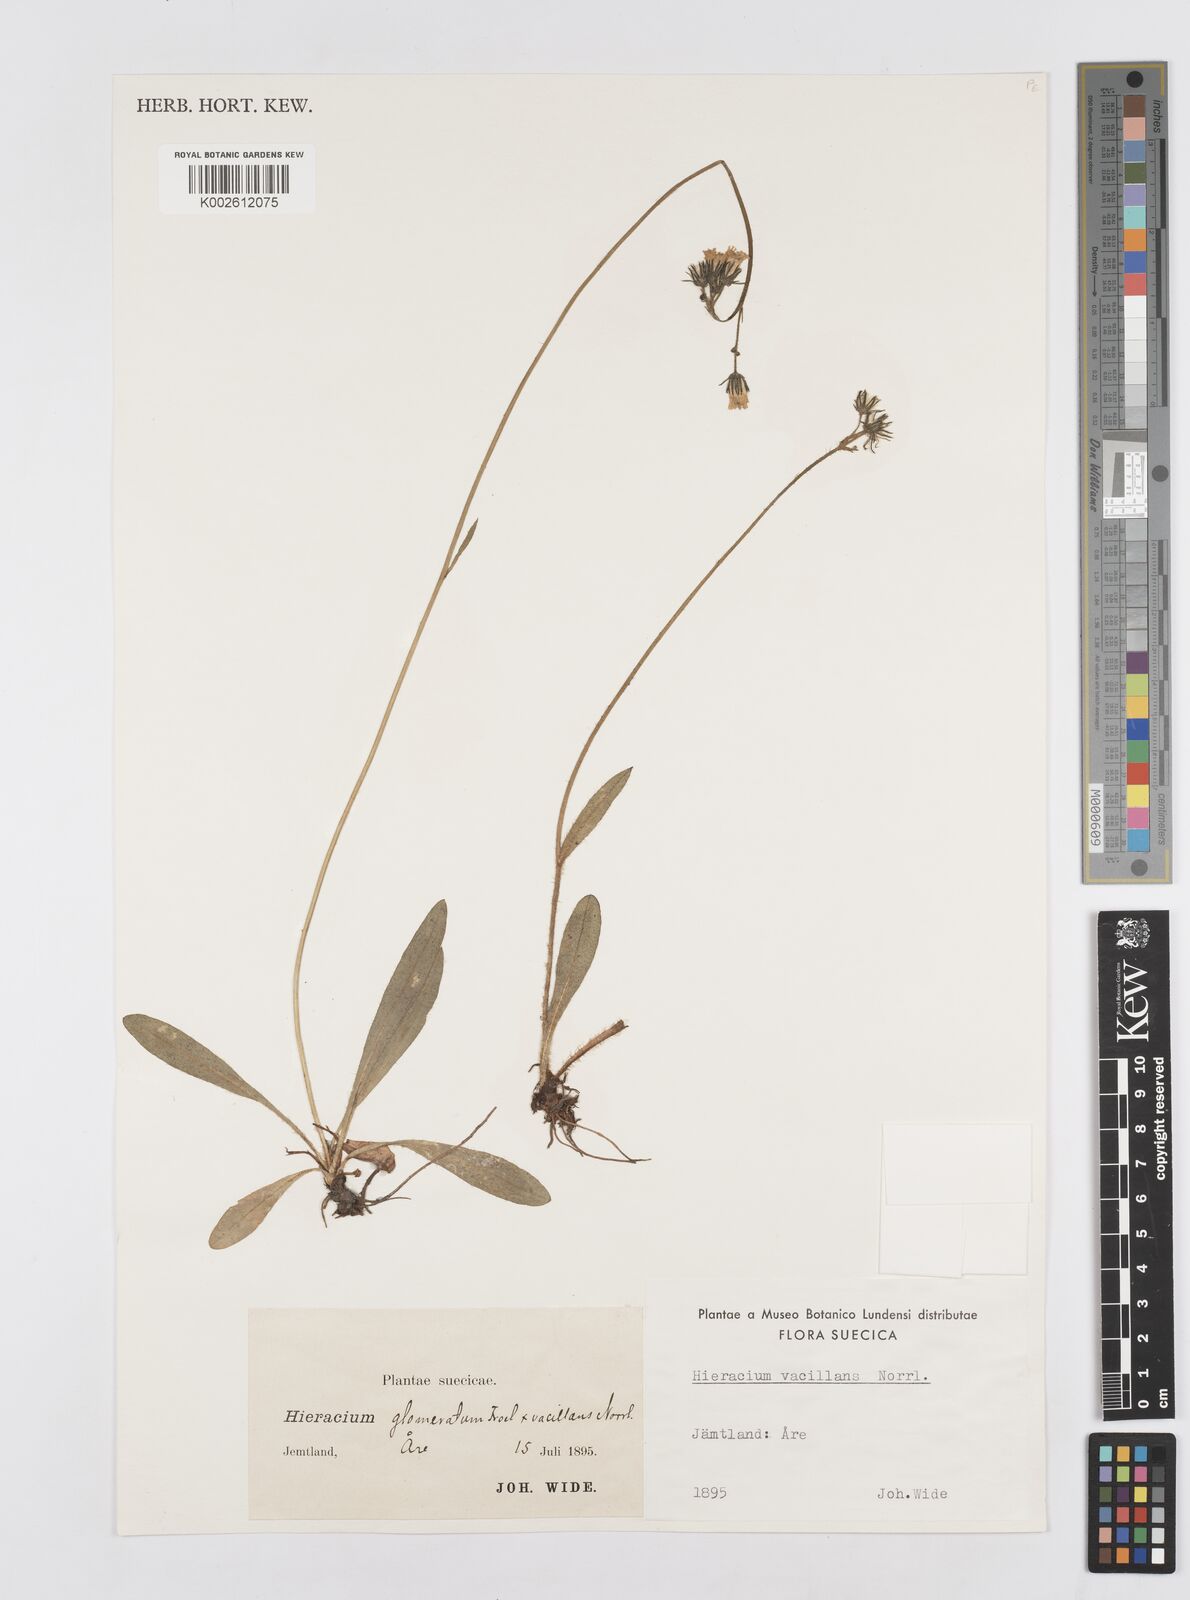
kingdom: Plantae
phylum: Tracheophyta
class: Magnoliopsida
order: Asterales
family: Asteraceae
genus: Pilosella
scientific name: Pilosella glomerata
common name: Queen devil hawkweed
